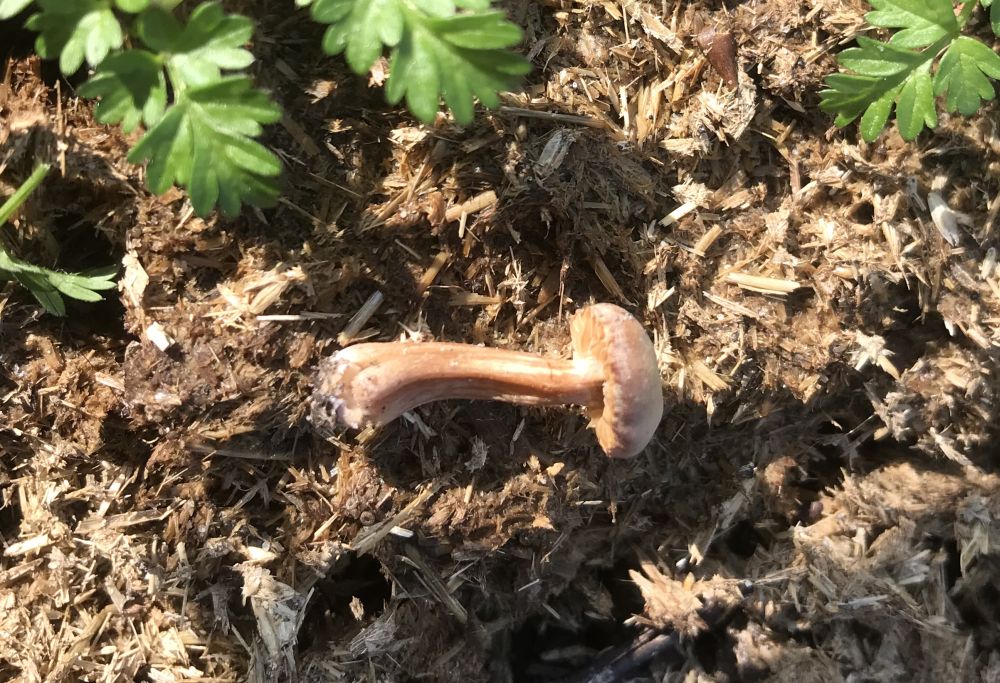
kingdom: Fungi
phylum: Basidiomycota
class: Agaricomycetes
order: Agaricales
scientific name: Agaricales
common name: champignonordenen
